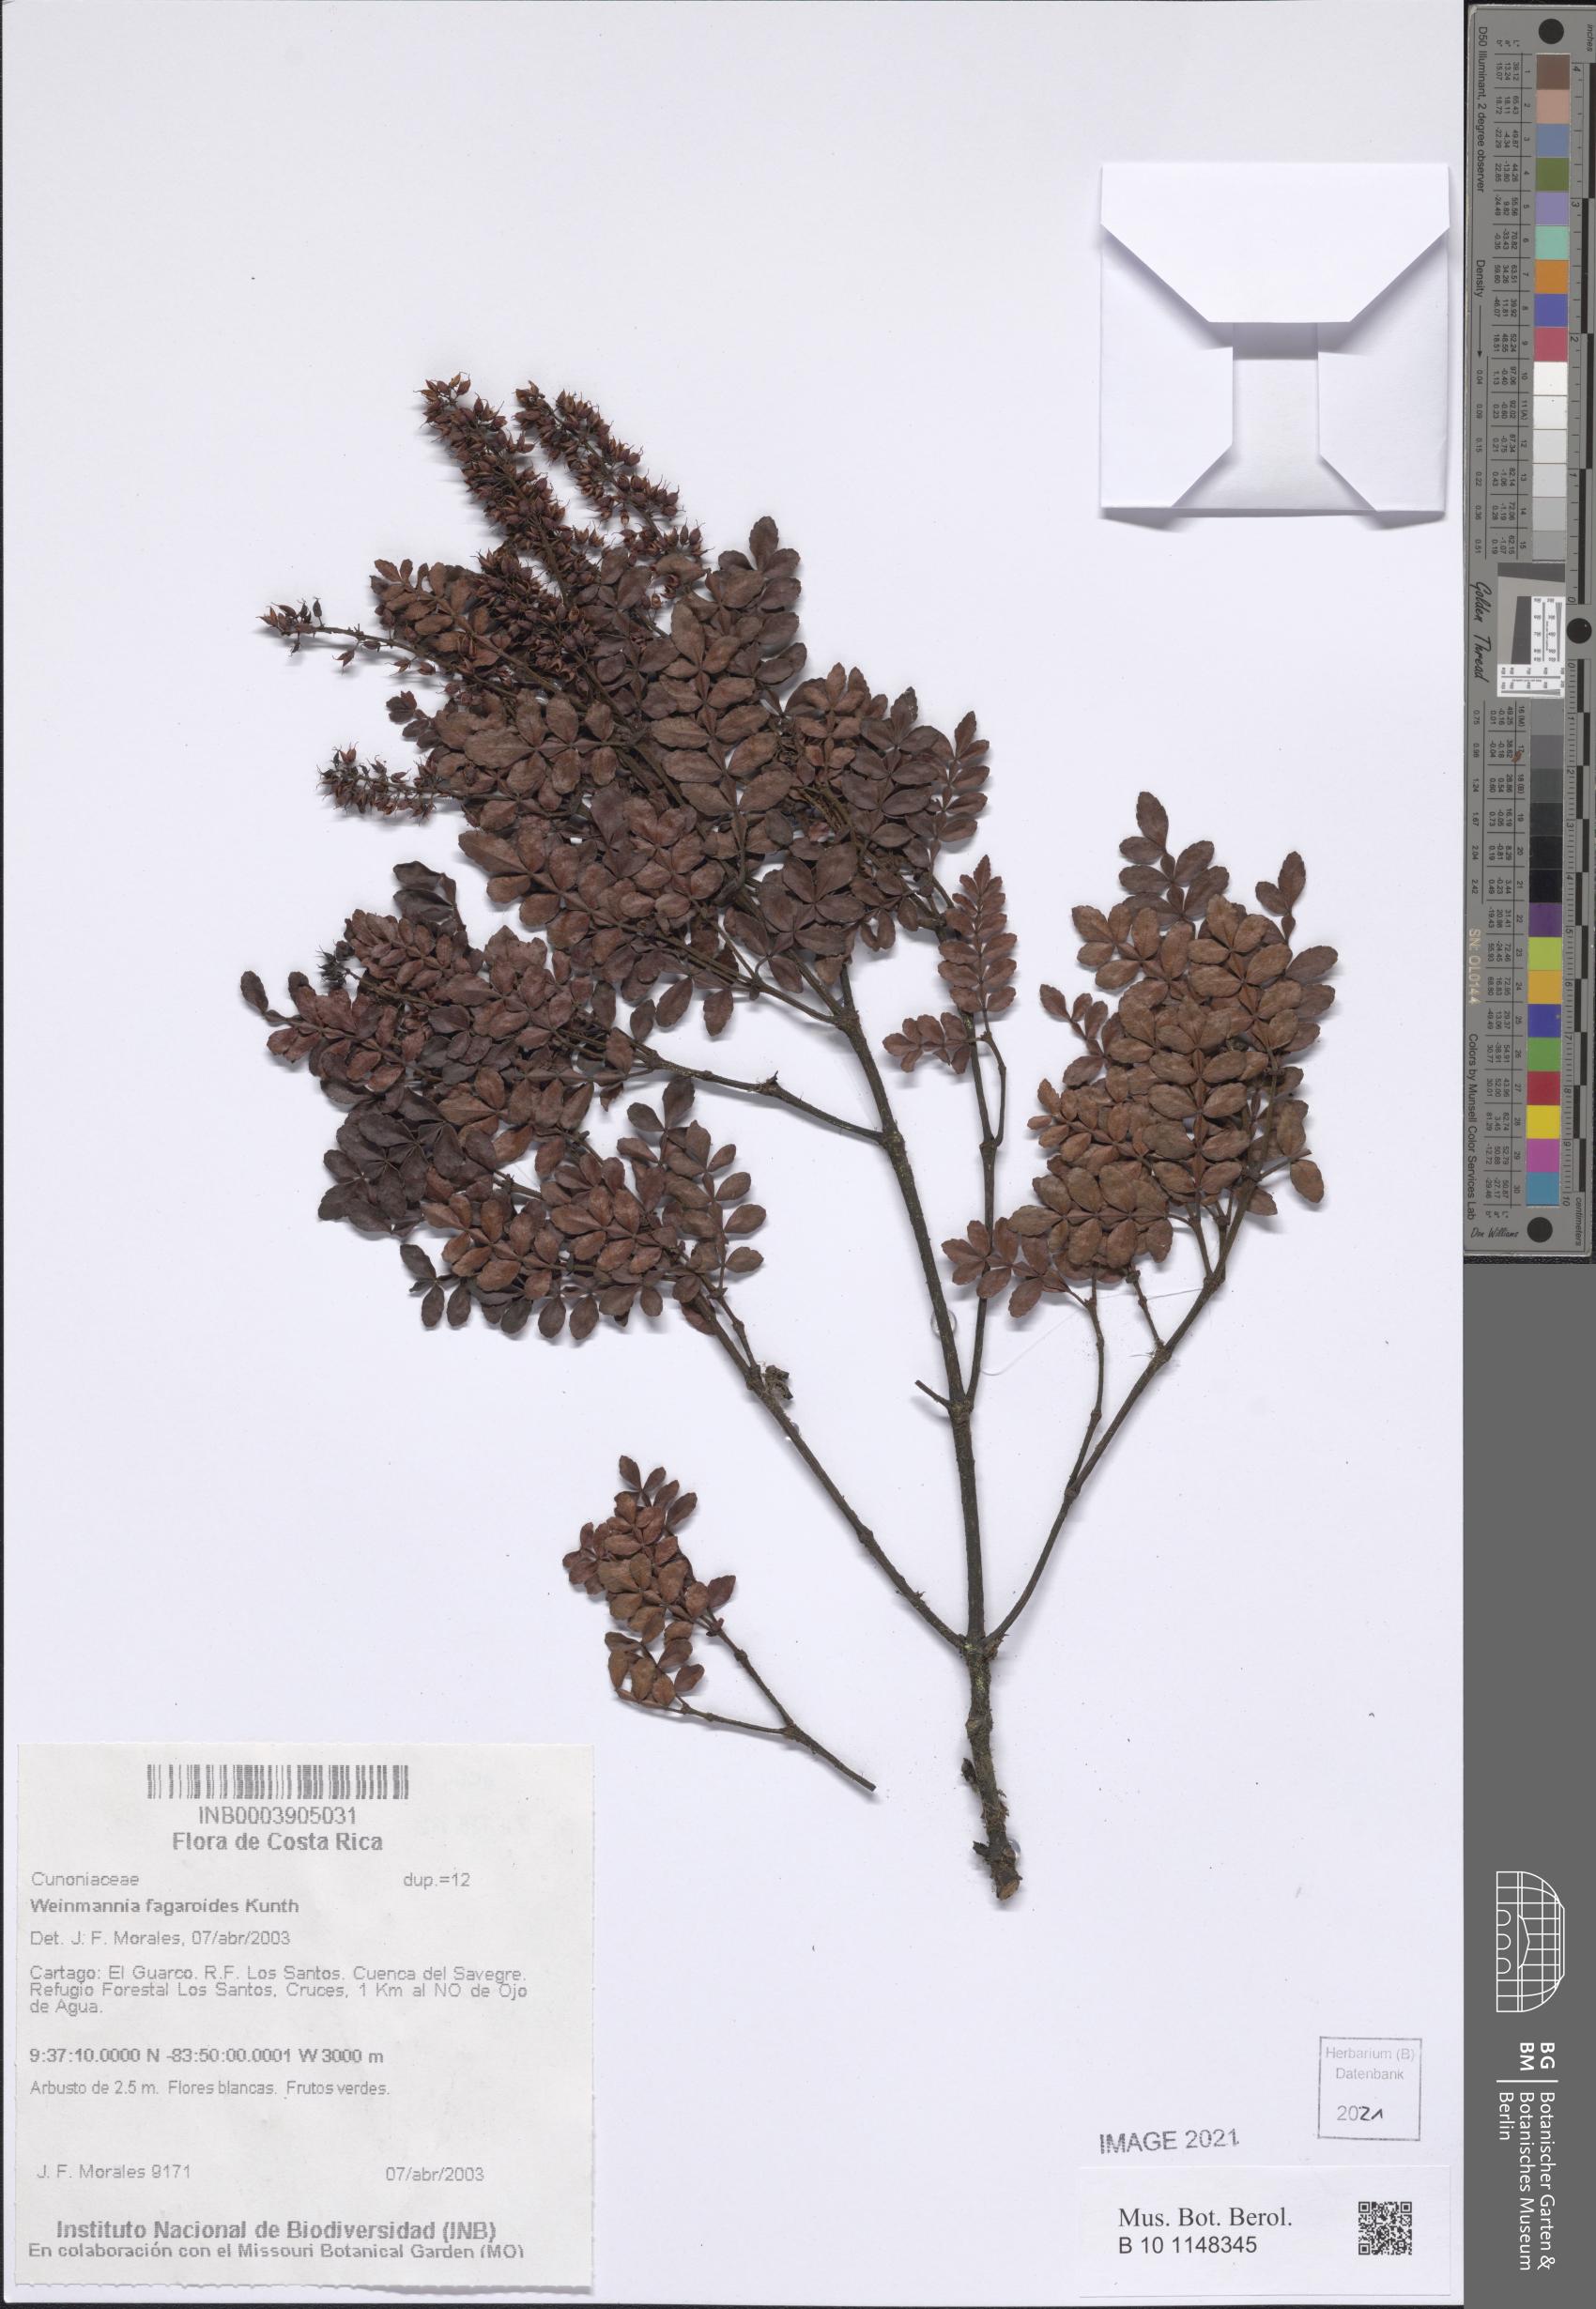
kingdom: Plantae
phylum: Tracheophyta
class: Magnoliopsida
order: Oxalidales
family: Cunoniaceae
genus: Weinmannia
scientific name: Weinmannia fagaroides
